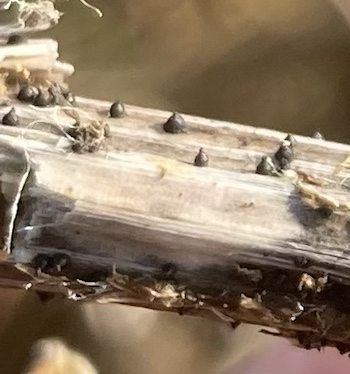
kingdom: Fungi
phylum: Ascomycota
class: Dothideomycetes
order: Pleosporales
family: Leptosphaeriaceae
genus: Leptosphaeria
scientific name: Leptosphaeria
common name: kulkegle
